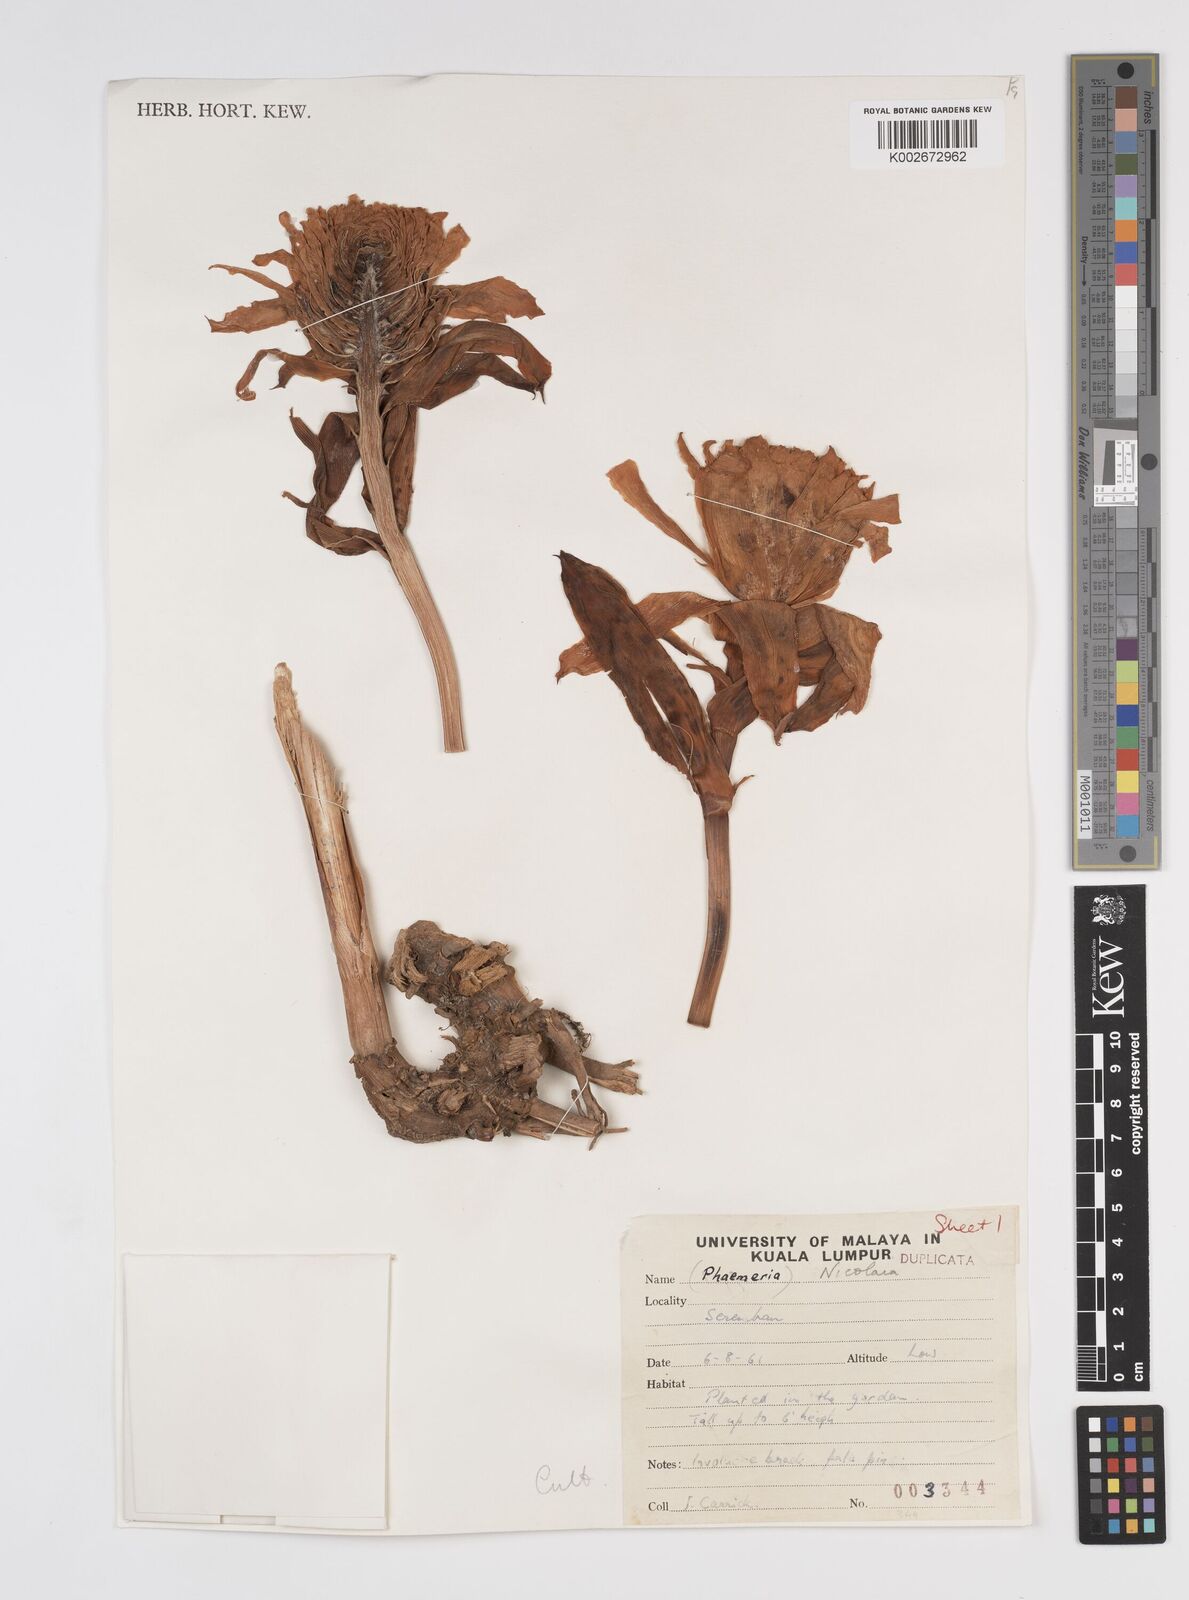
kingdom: Plantae
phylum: Tracheophyta
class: Liliopsida
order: Zingiberales
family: Zingiberaceae
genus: Etlingera
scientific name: Etlingera
